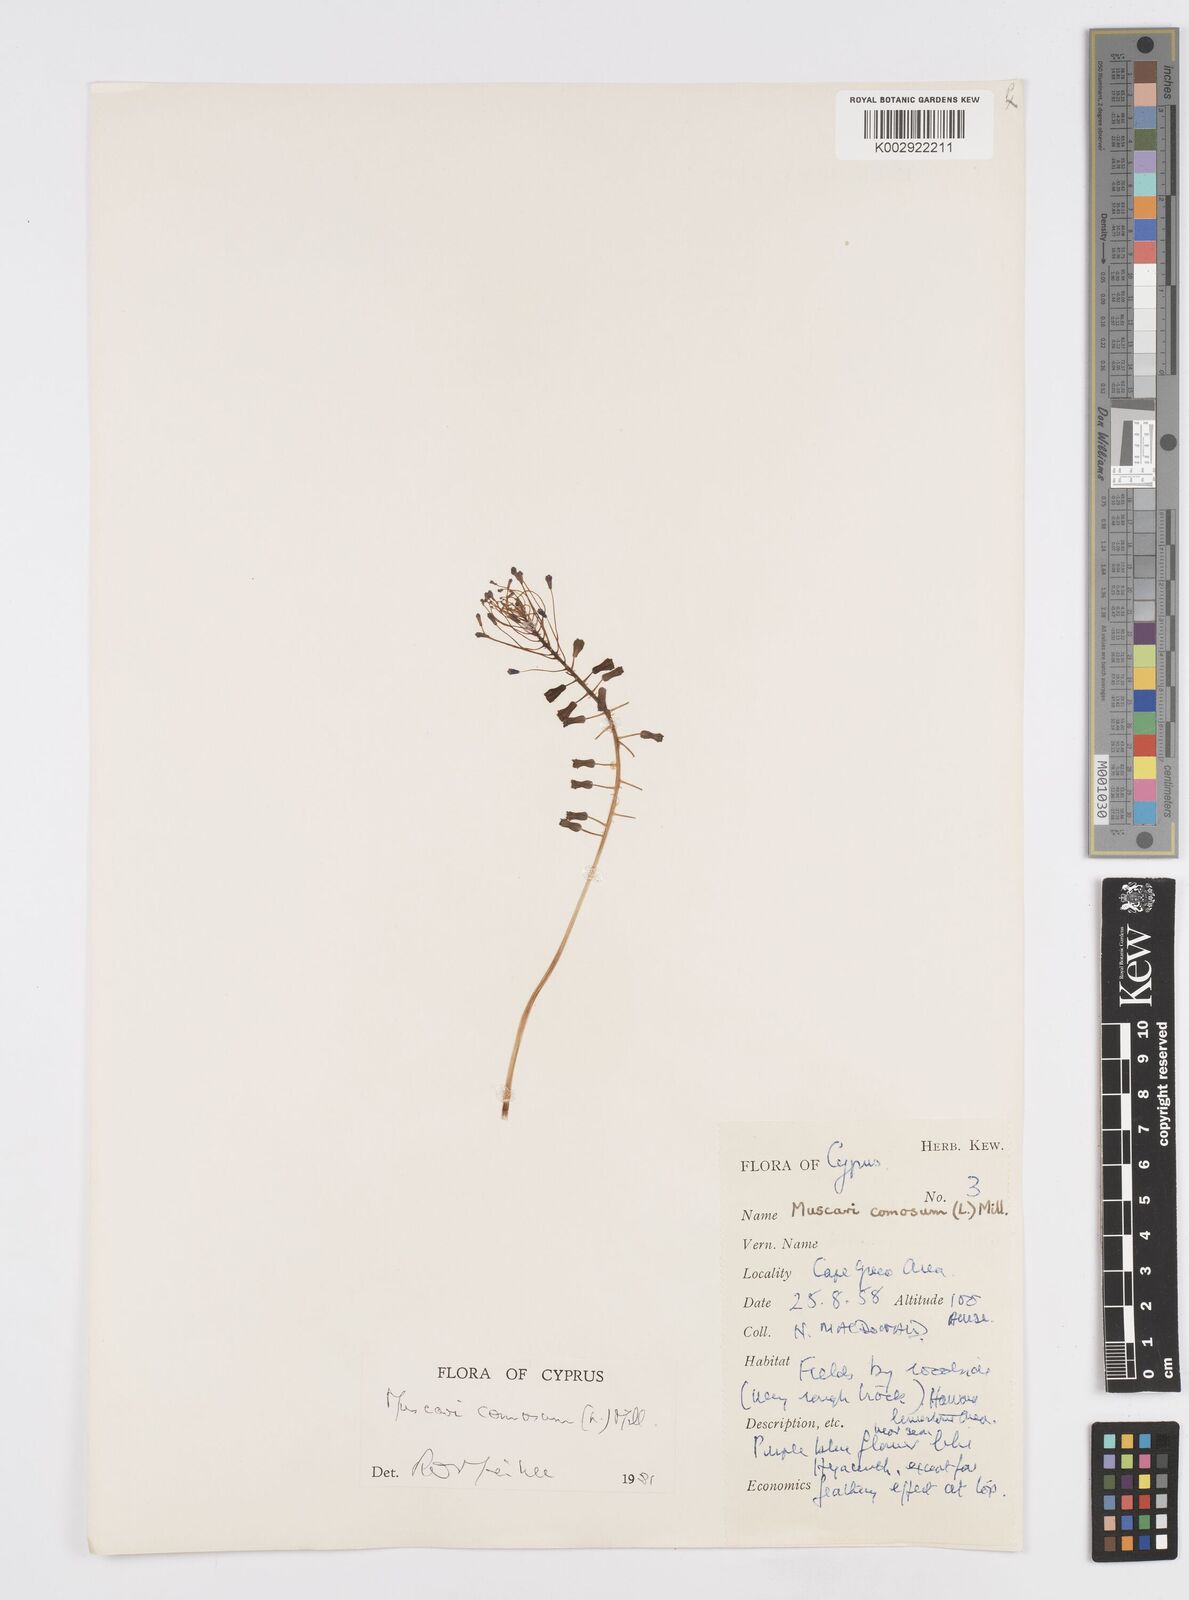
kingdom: Plantae
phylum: Tracheophyta
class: Liliopsida
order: Asparagales
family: Asparagaceae
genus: Muscari
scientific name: Muscari comosum
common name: Tassel hyacinth
